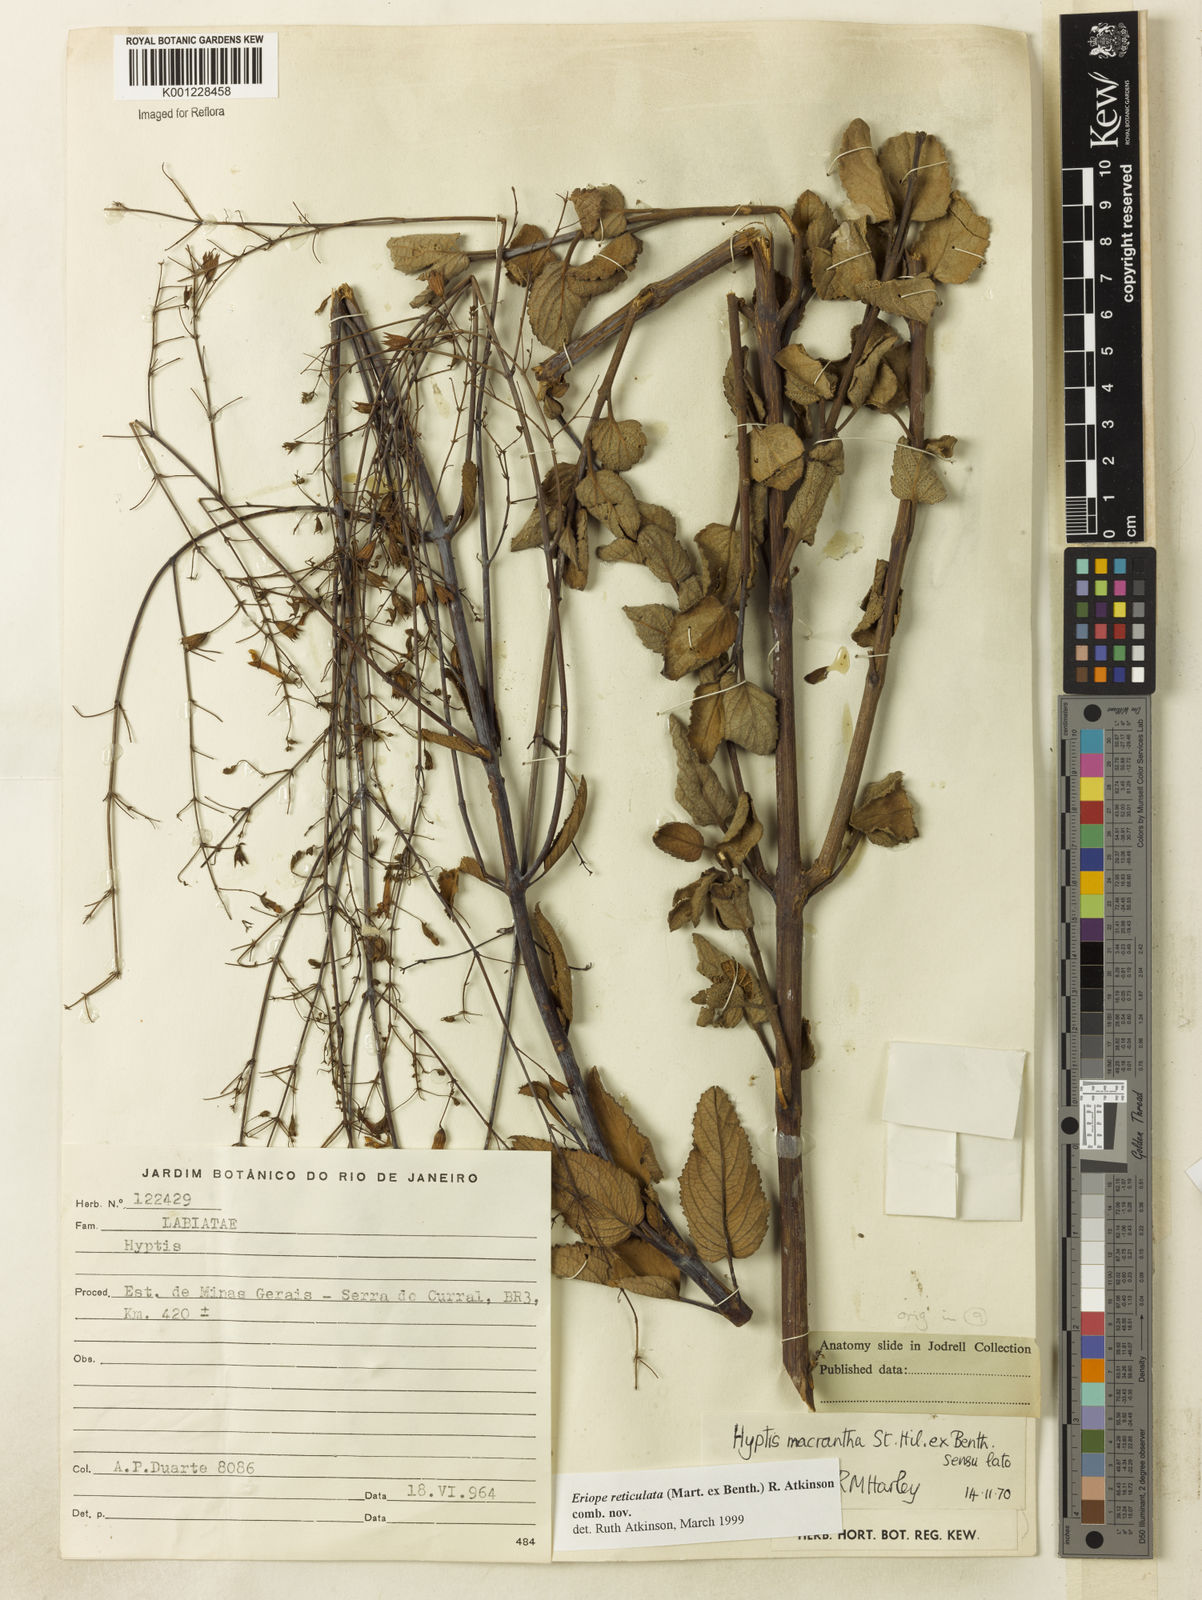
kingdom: Plantae
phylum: Tracheophyta
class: Magnoliopsida
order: Lamiales
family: Lamiaceae
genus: Hypenia
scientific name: Hypenia reticulata
